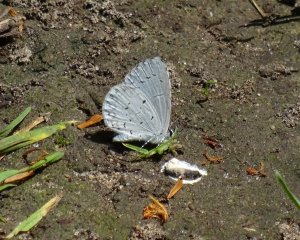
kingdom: Animalia
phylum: Arthropoda
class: Insecta
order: Lepidoptera
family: Lycaenidae
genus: Cyaniris
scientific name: Cyaniris neglecta
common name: Summer Azure
